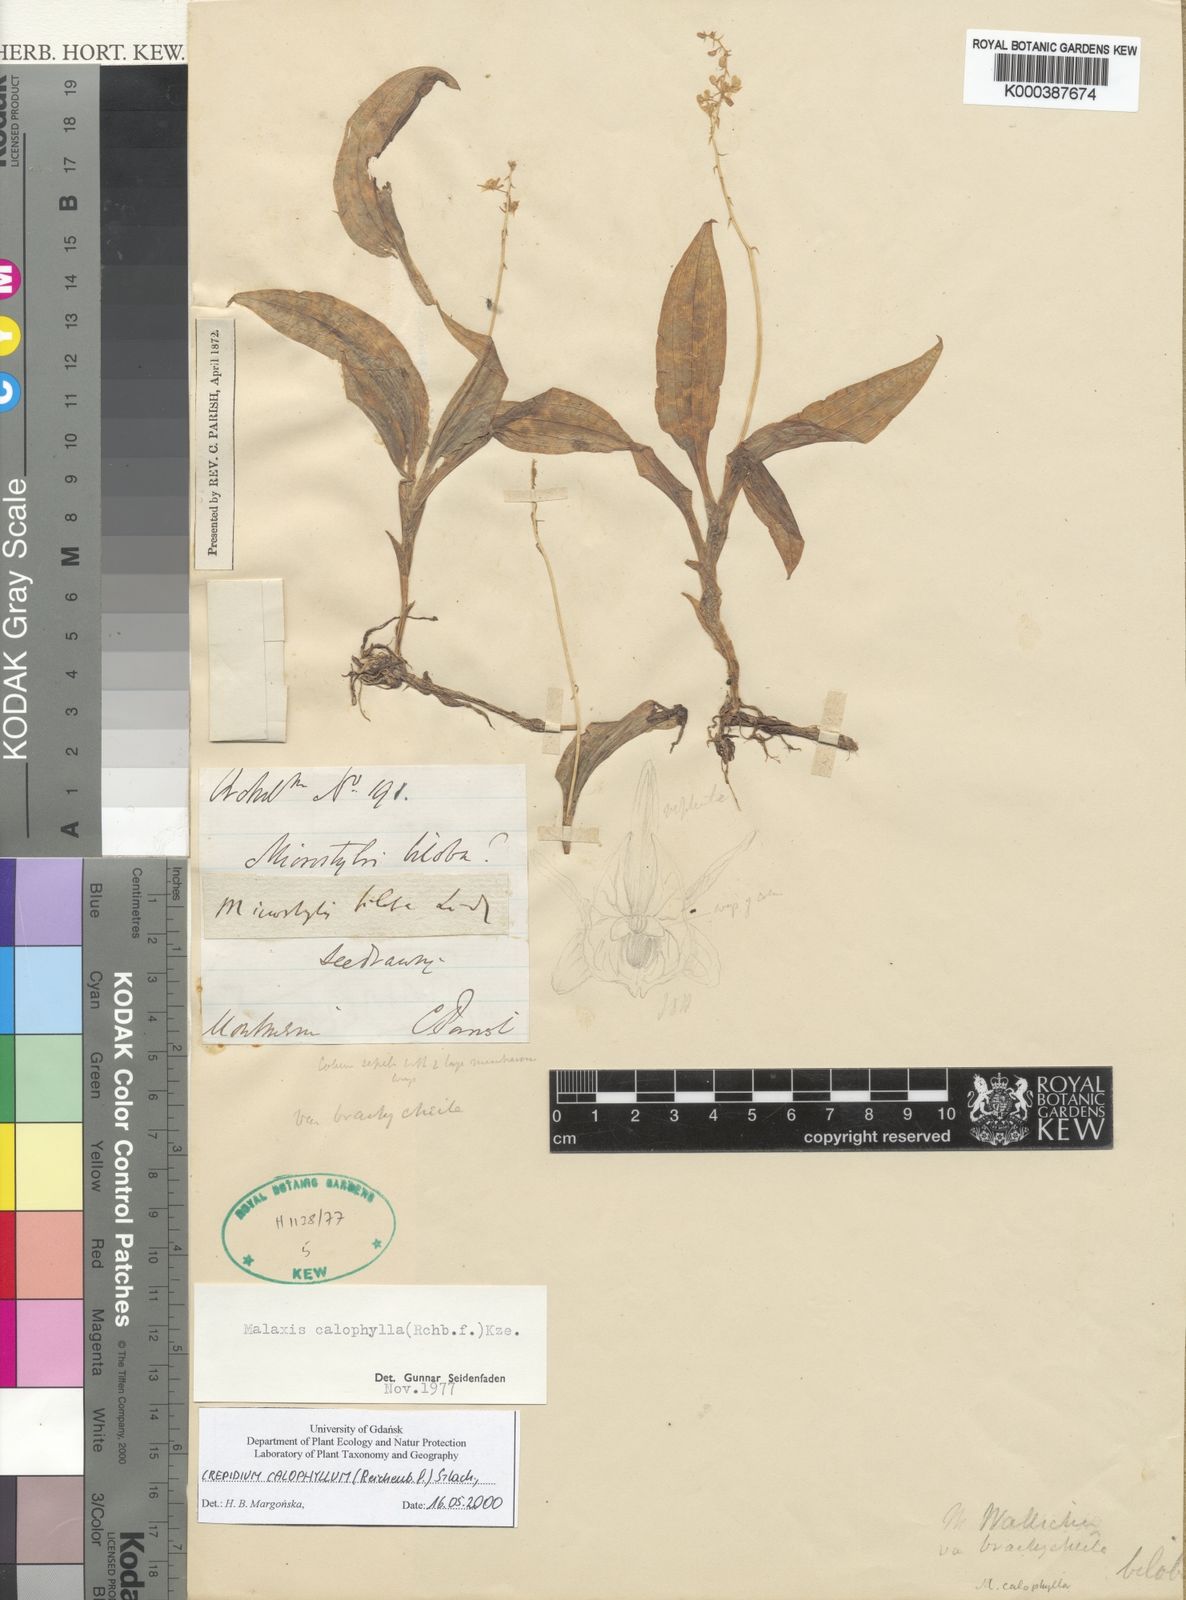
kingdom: Plantae
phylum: Tracheophyta
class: Liliopsida
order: Asparagales
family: Orchidaceae
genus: Crepidium
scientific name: Crepidium calophyllum
